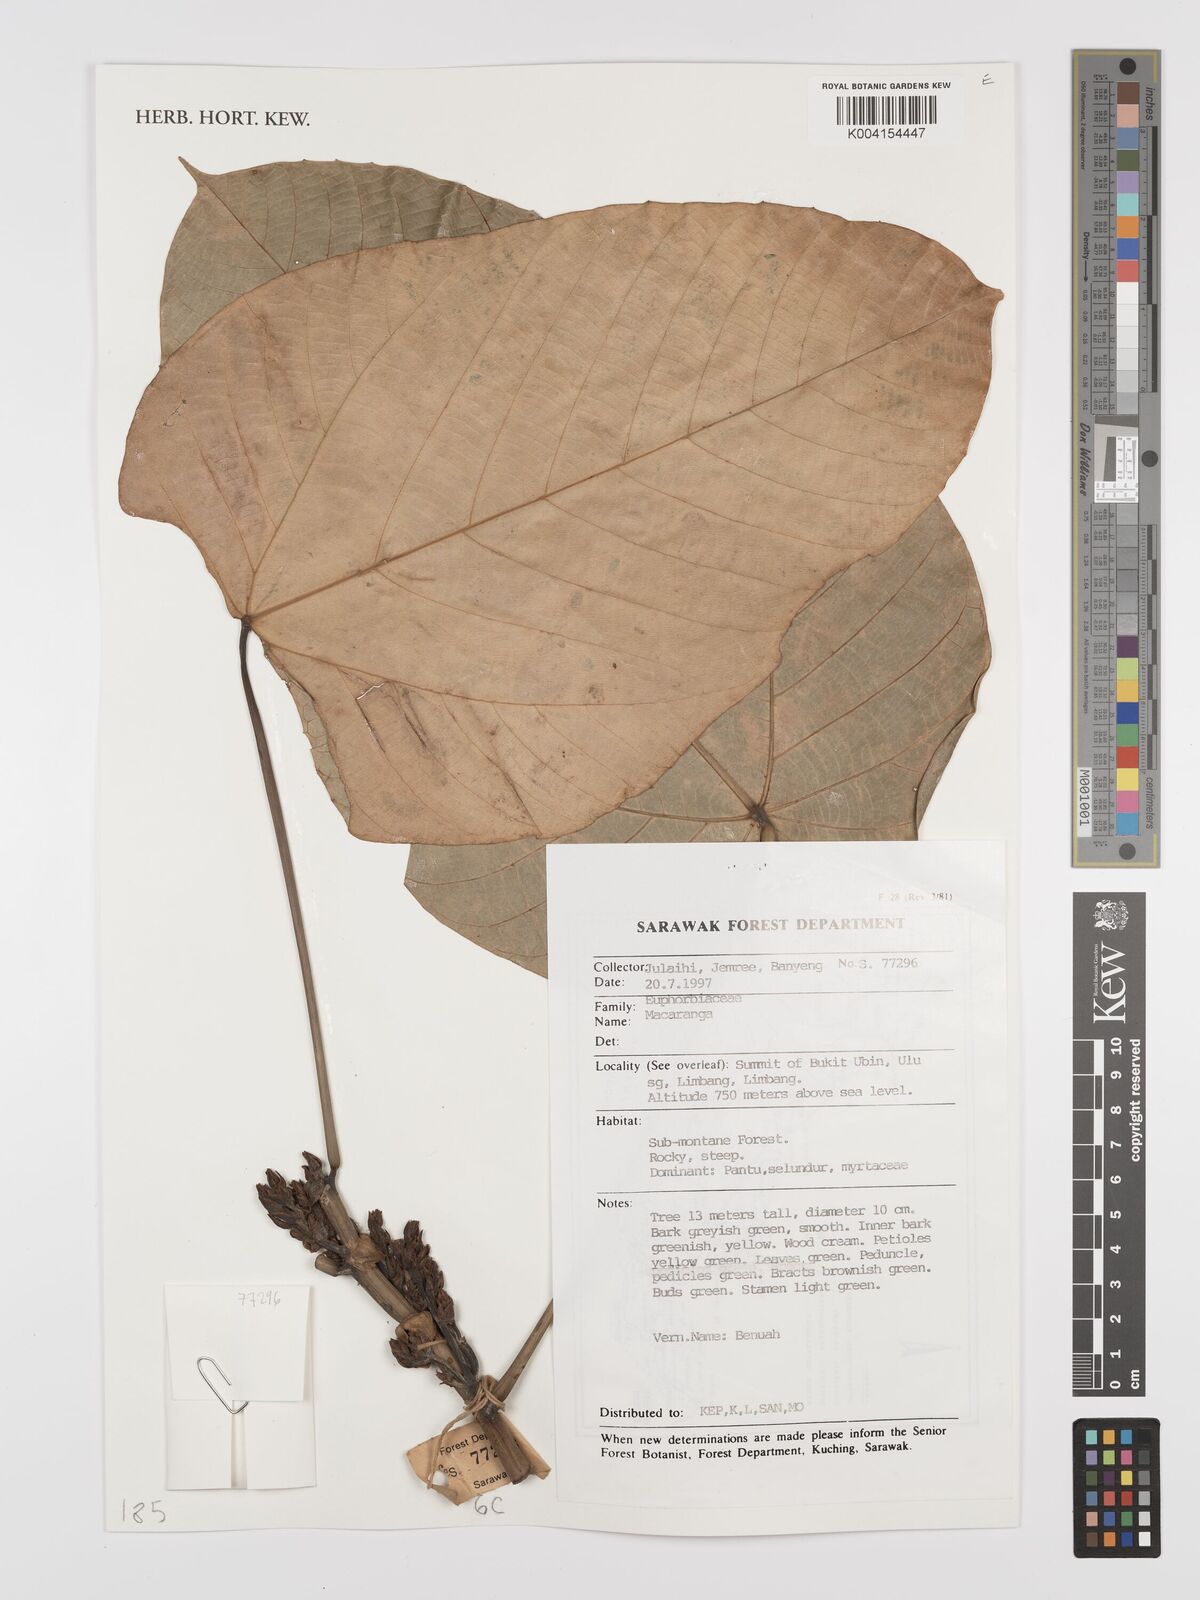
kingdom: Plantae
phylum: Tracheophyta
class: Magnoliopsida
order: Malpighiales
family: Euphorbiaceae
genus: Macaranga
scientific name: Macaranga
